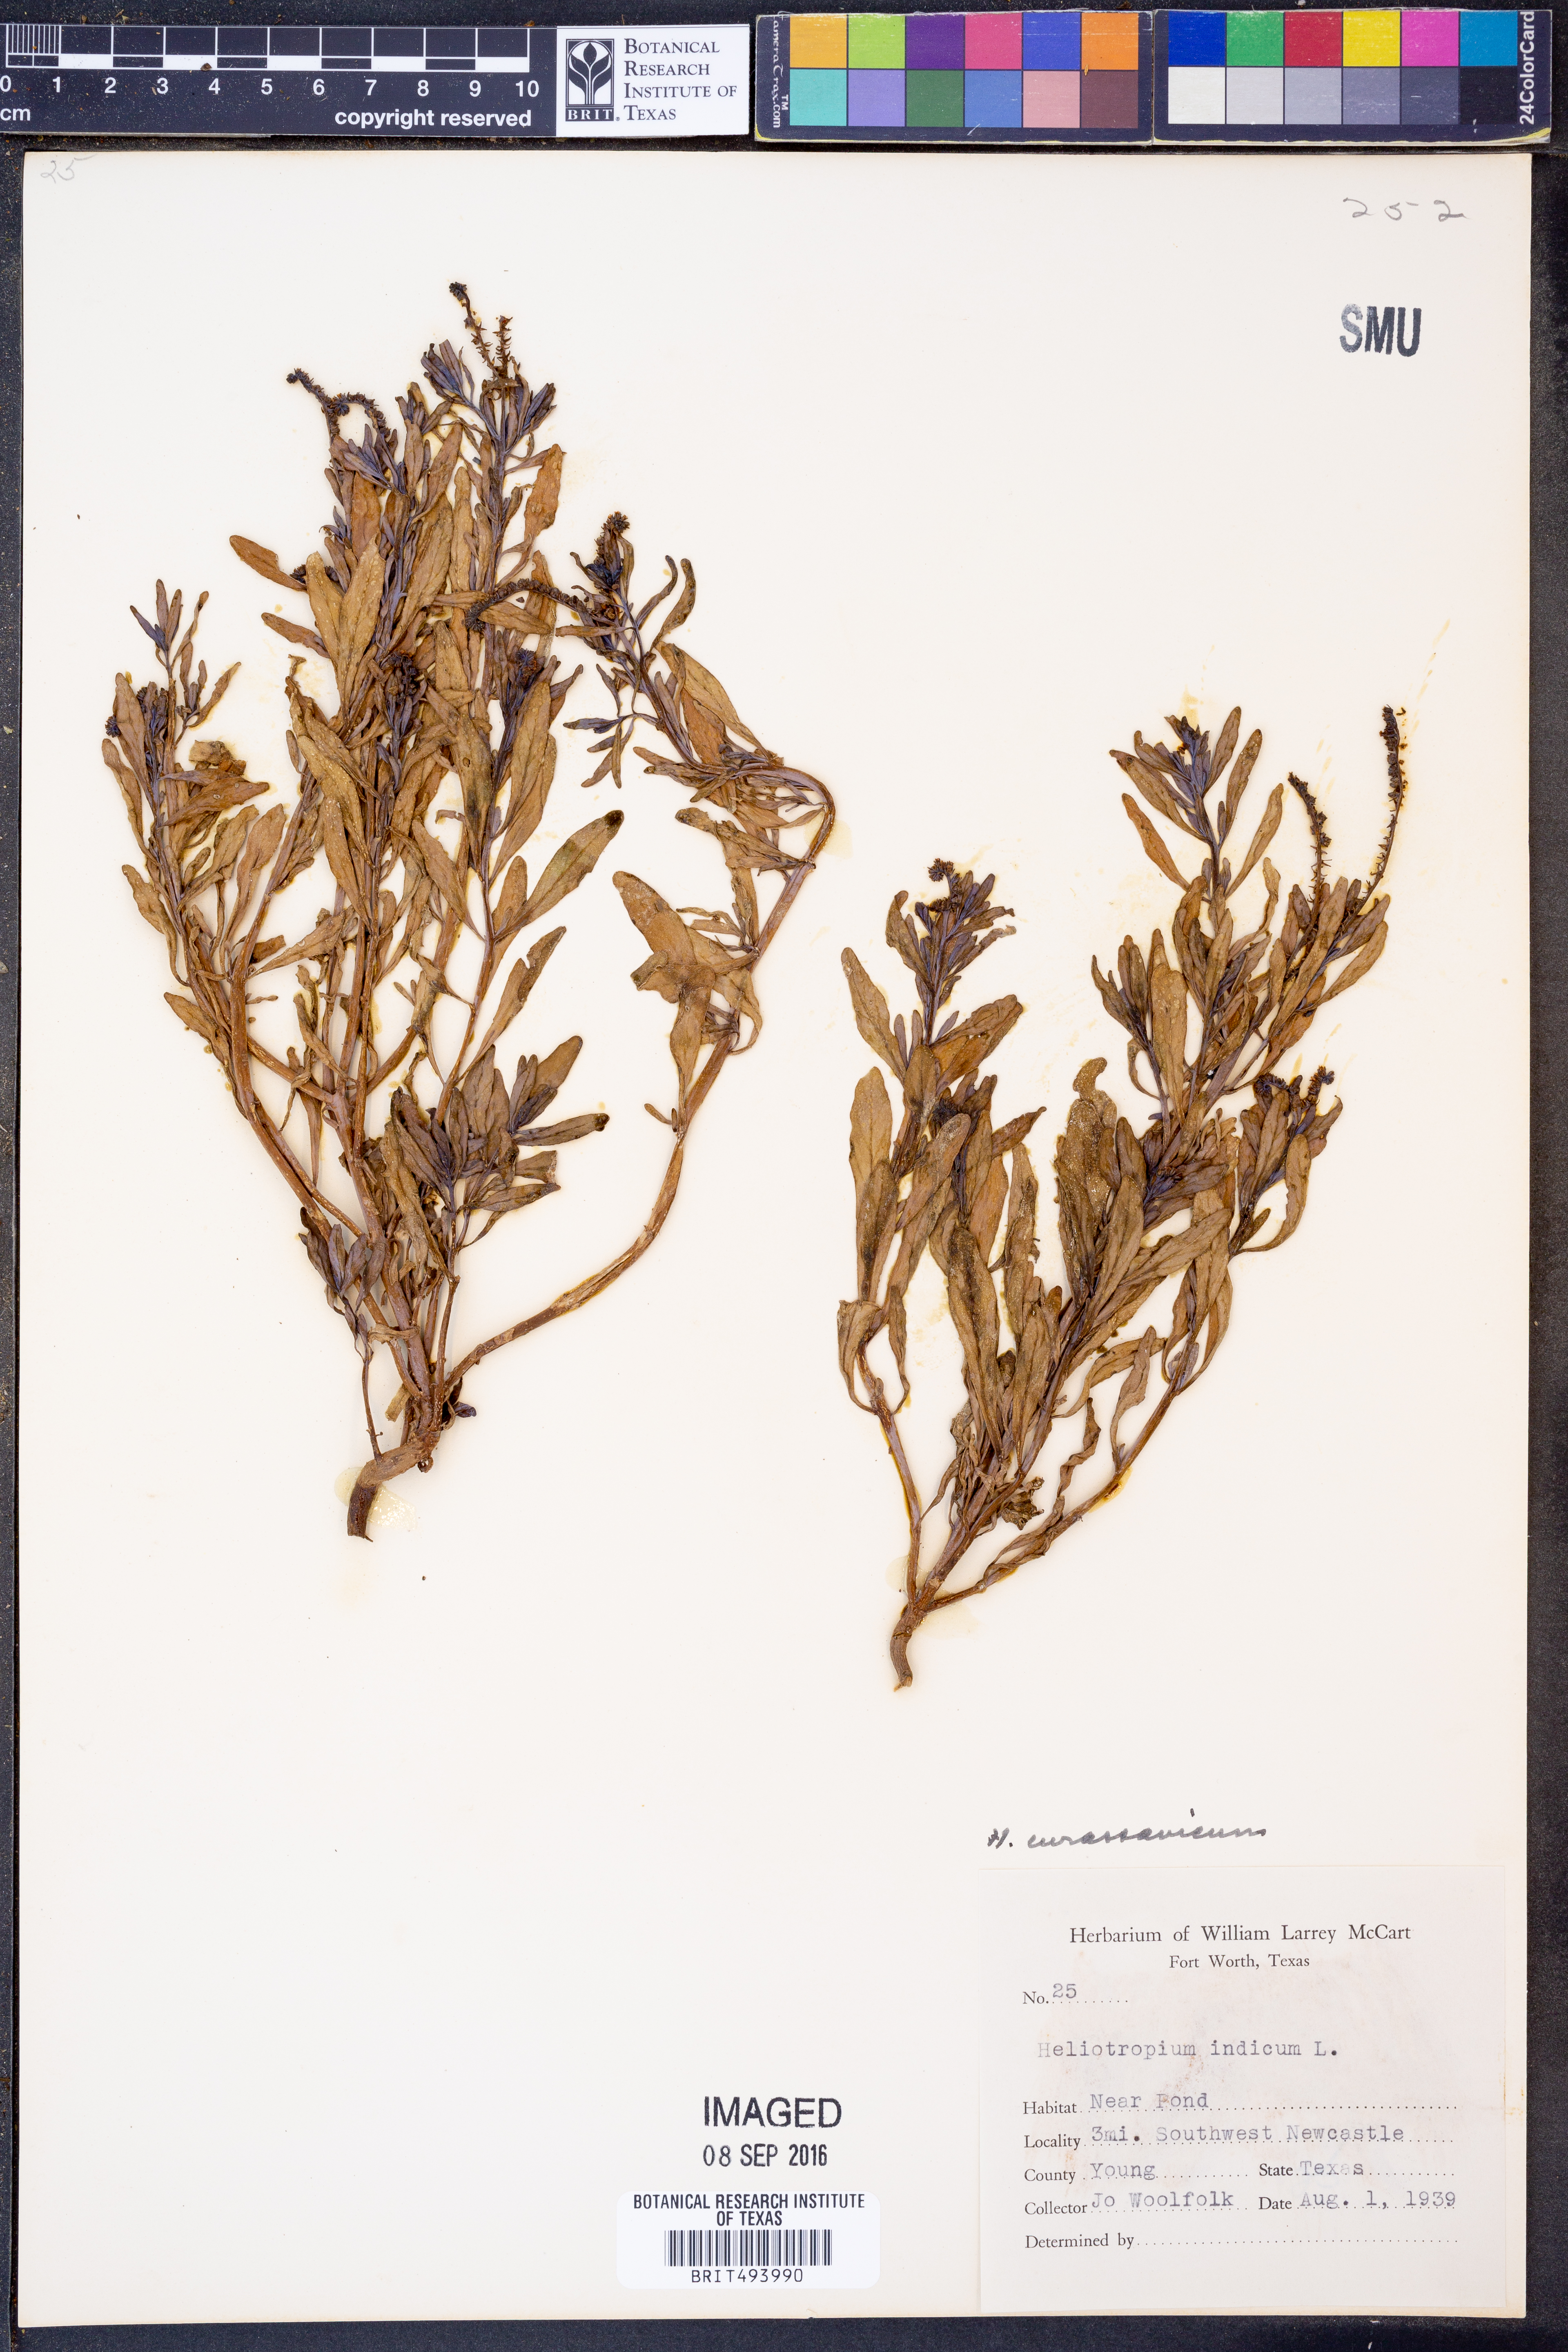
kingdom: Plantae
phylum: Tracheophyta
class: Magnoliopsida
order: Boraginales
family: Heliotropiaceae
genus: Heliotropium
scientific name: Heliotropium curassavicum
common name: Seaside heliotrope
